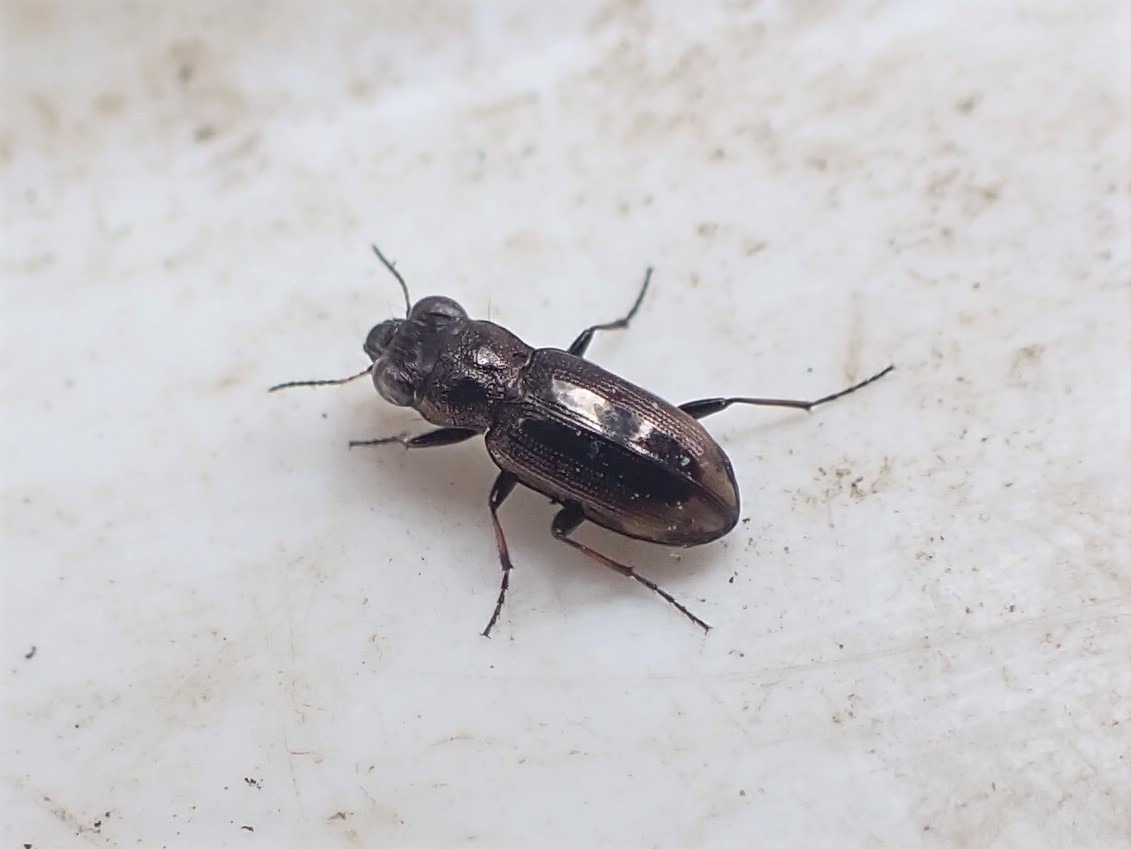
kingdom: Animalia
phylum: Arthropoda
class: Insecta
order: Coleoptera
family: Carabidae
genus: Notiophilus
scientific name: Notiophilus biguttatus
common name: Toplettet spejlløber
